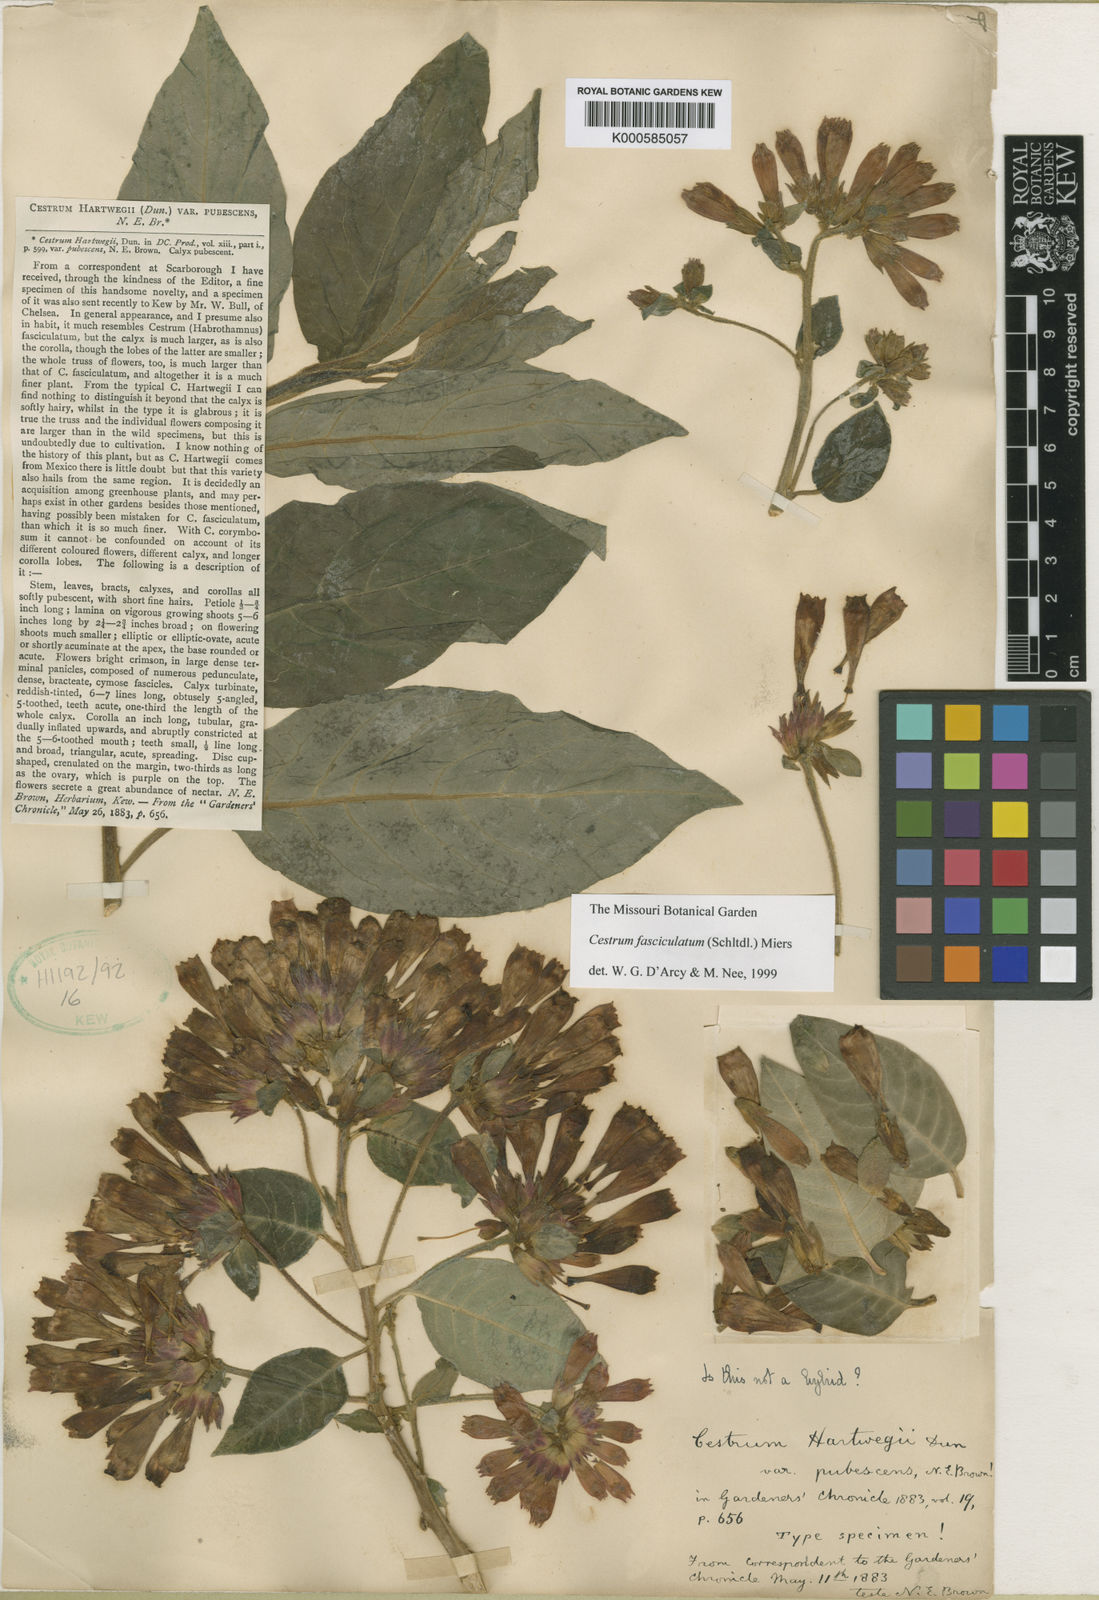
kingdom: Plantae
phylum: Tracheophyta
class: Magnoliopsida
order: Solanales
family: Solanaceae
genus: Cestrum
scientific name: Cestrum hartwegii
